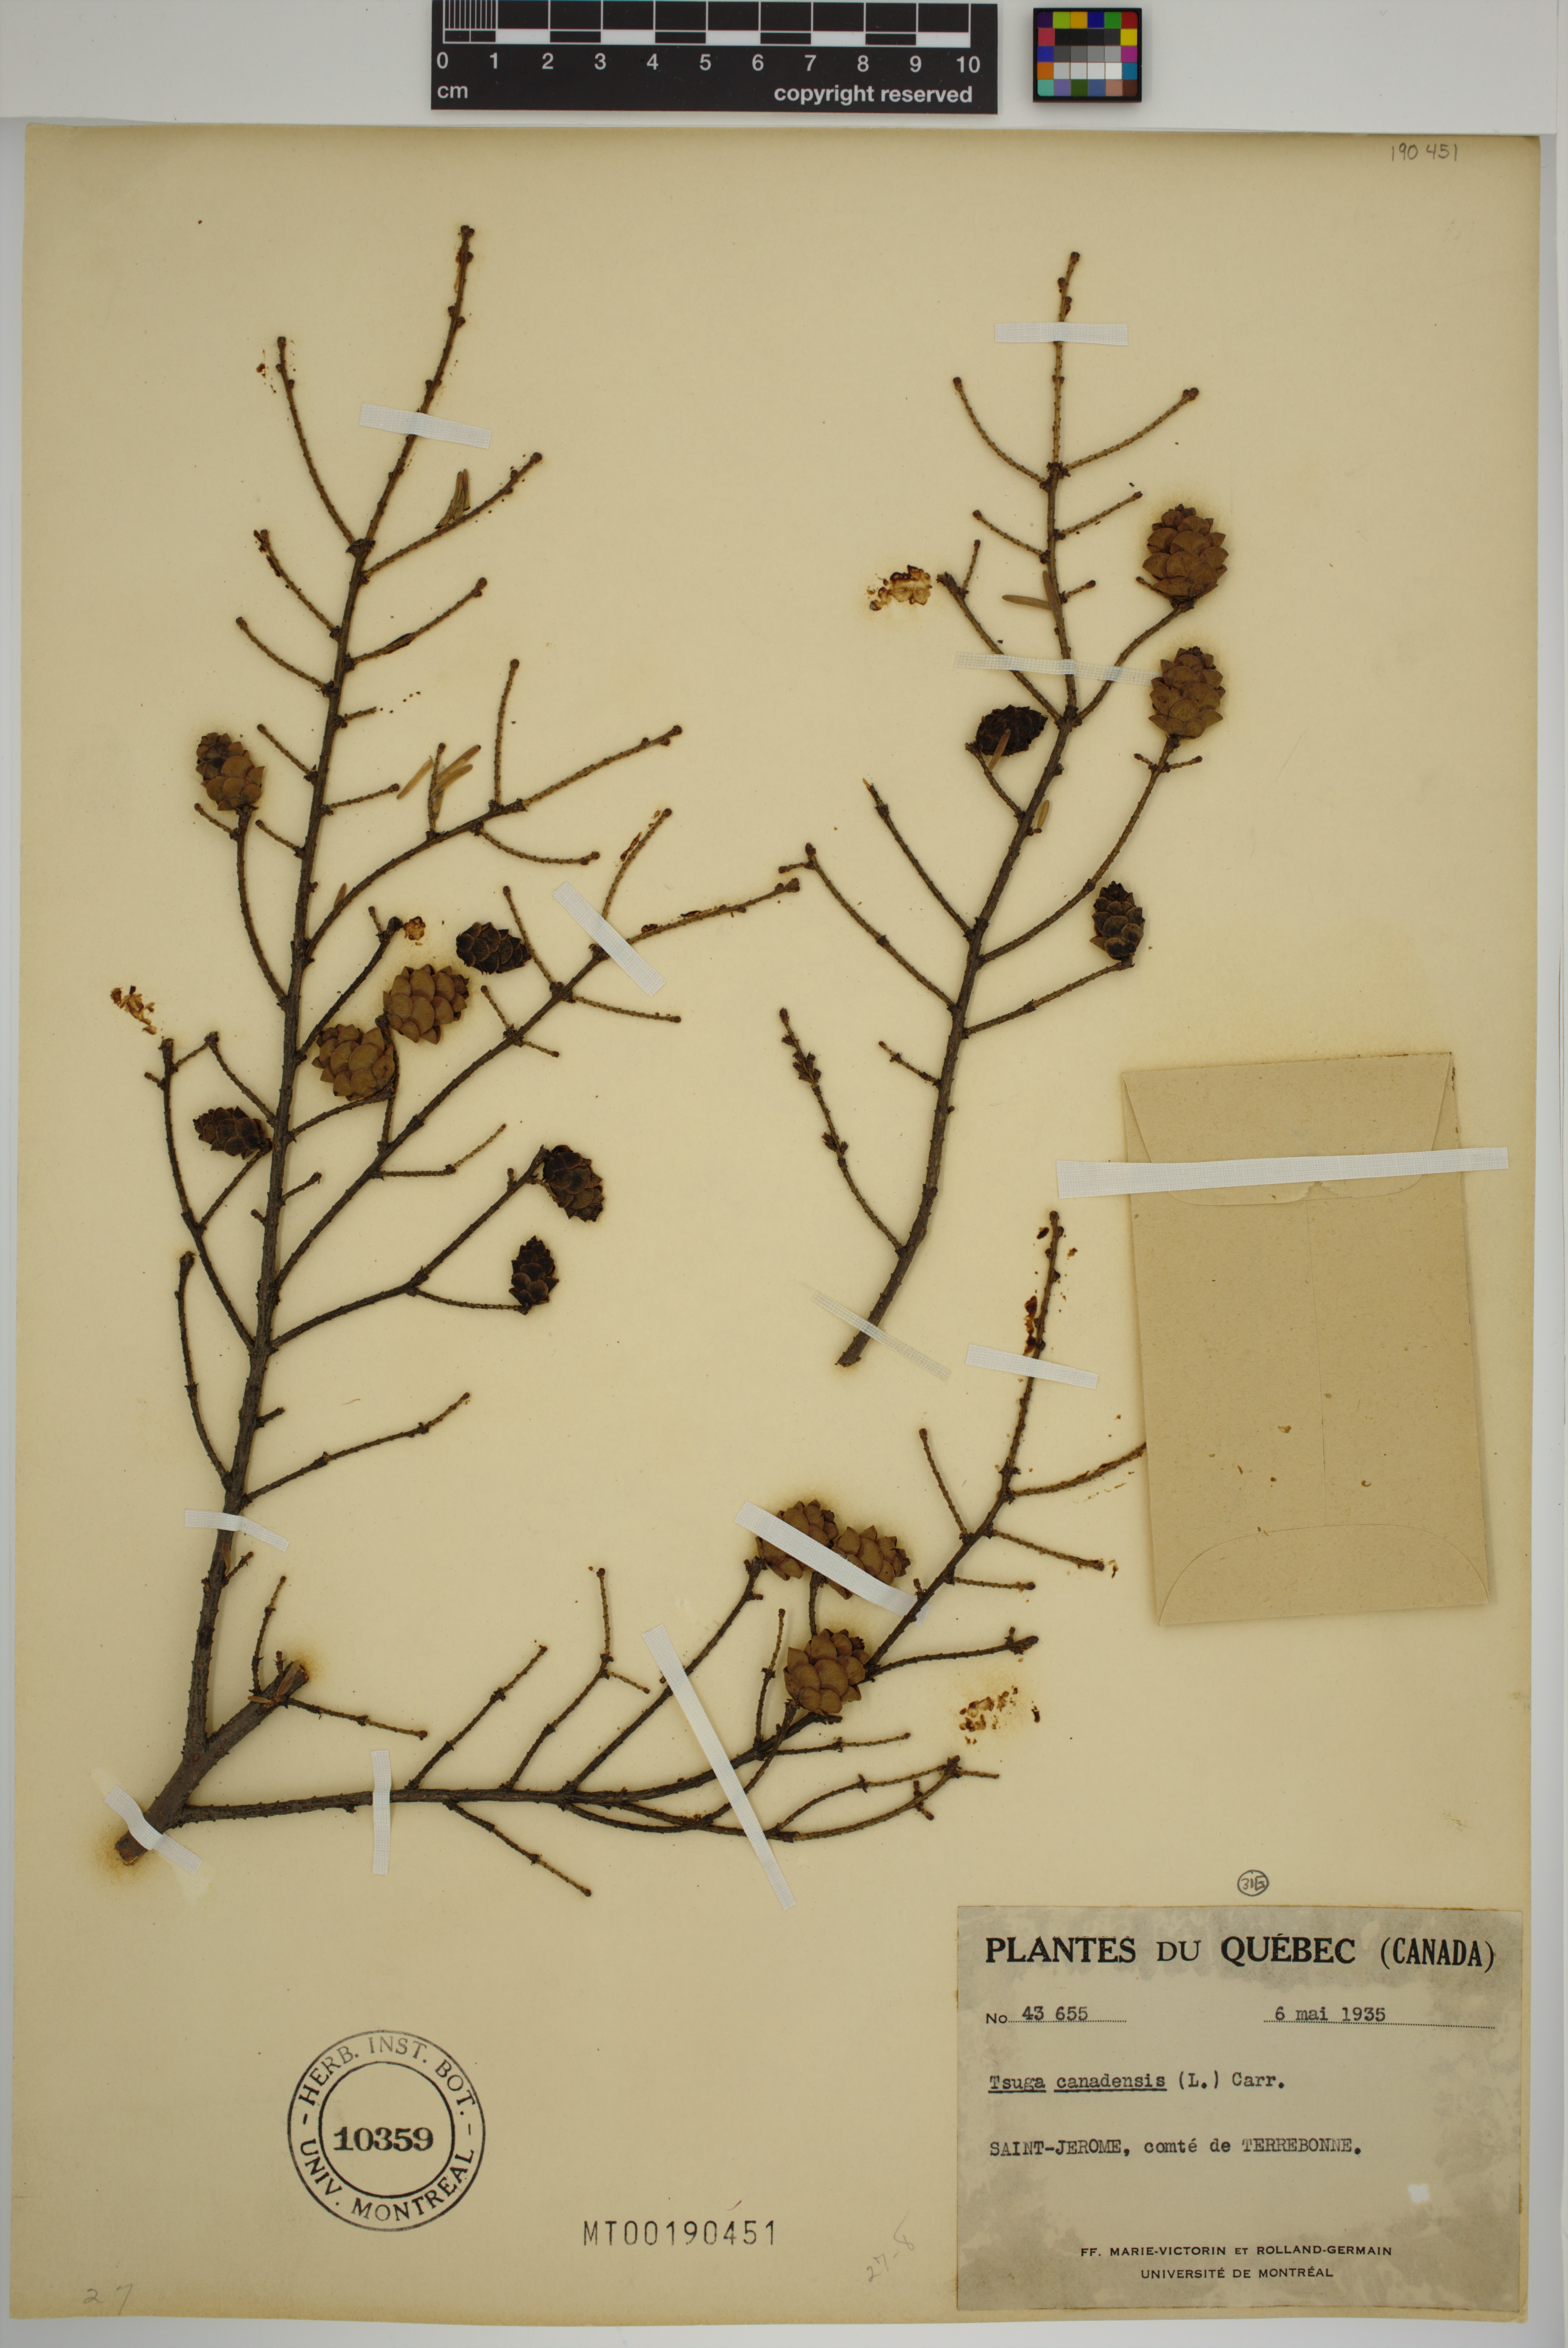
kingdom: Plantae
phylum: Tracheophyta
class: Pinopsida
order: Pinales
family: Pinaceae
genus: Tsuga
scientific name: Tsuga canadensis
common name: Eastern hemlock
